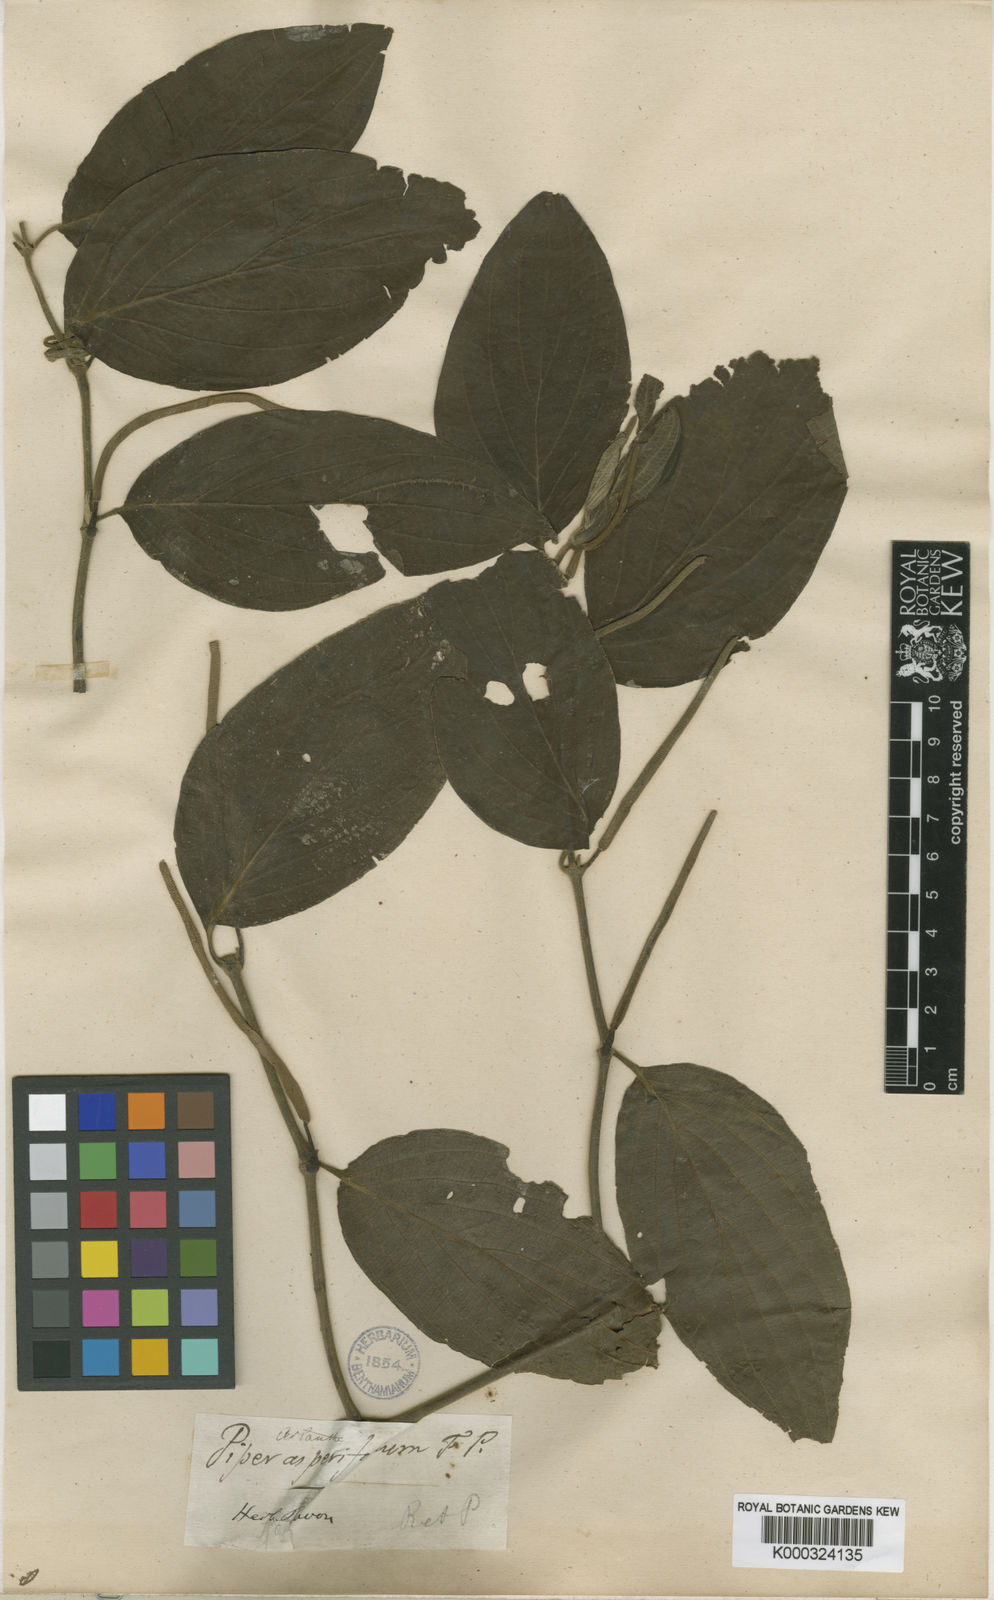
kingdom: Plantae
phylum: Tracheophyta
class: Magnoliopsida
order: Piperales
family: Piperaceae
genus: Piper
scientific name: Piper afflictum
